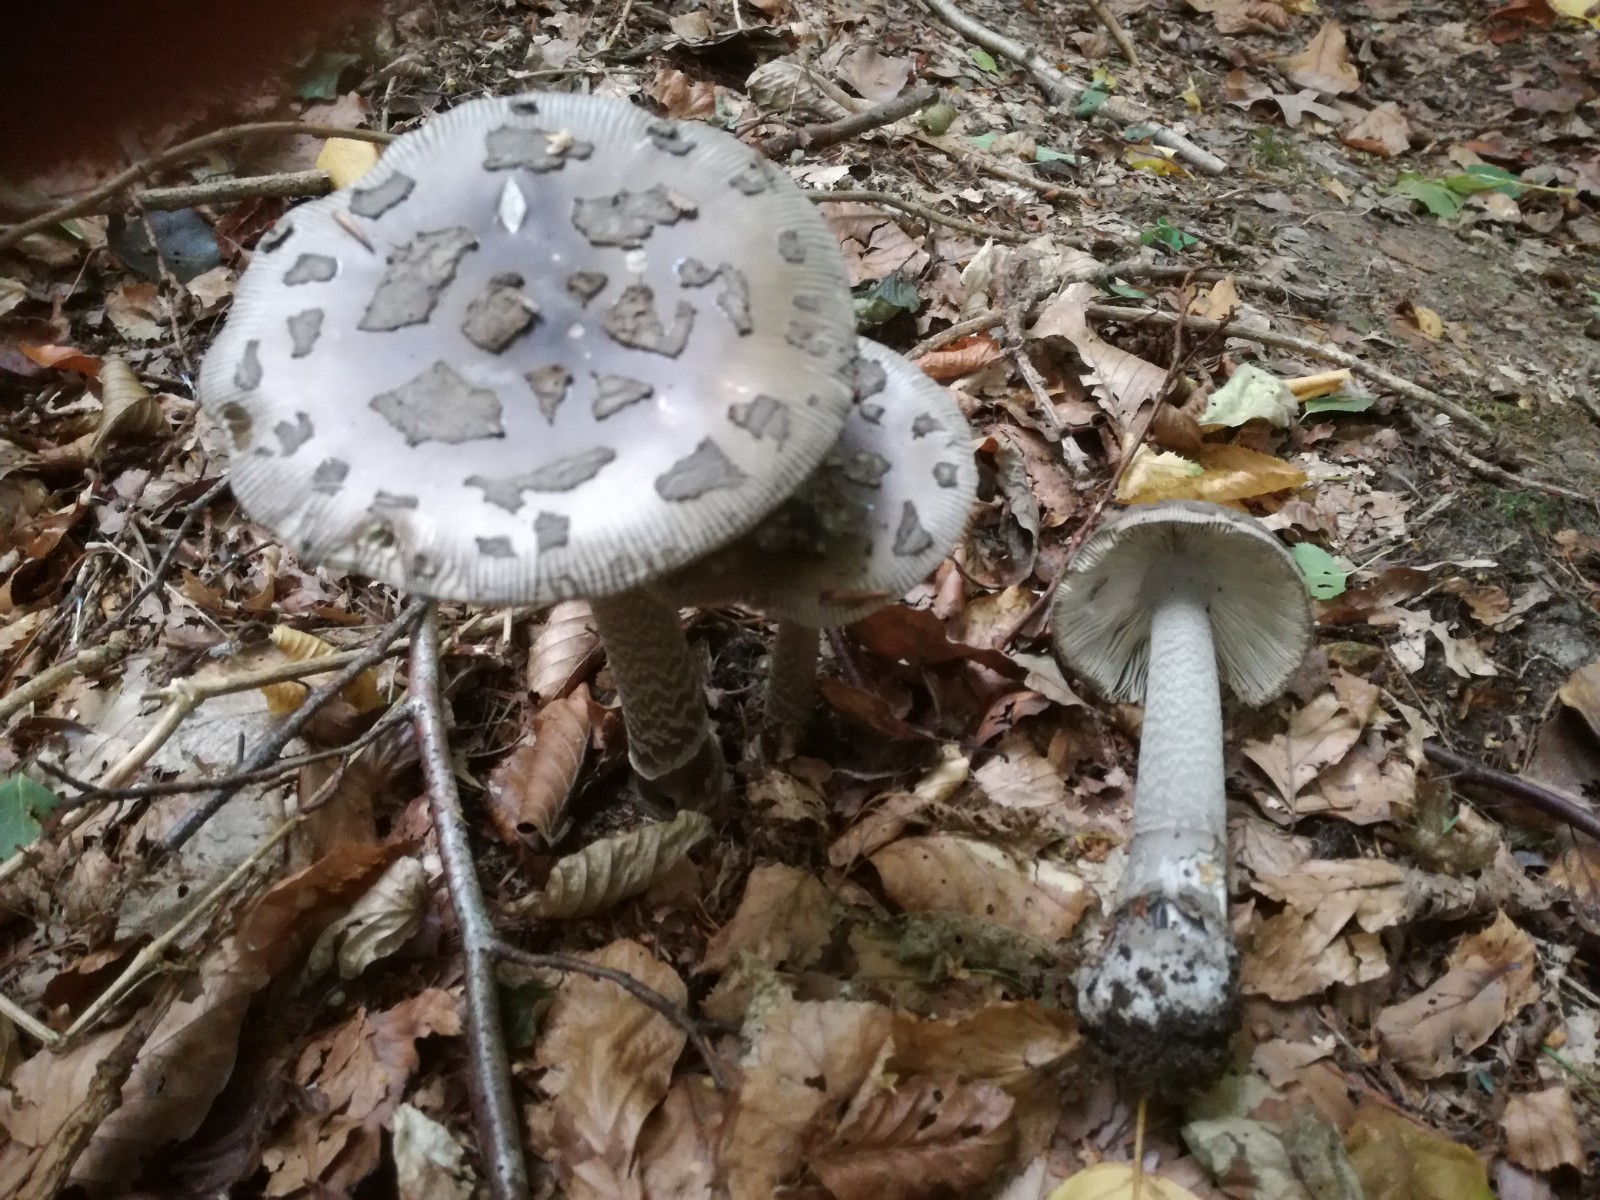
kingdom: Fungi
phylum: Basidiomycota
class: Agaricomycetes
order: Agaricales
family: Amanitaceae
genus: Amanita
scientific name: Amanita ceciliae
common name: stor kam-fluesvamp
